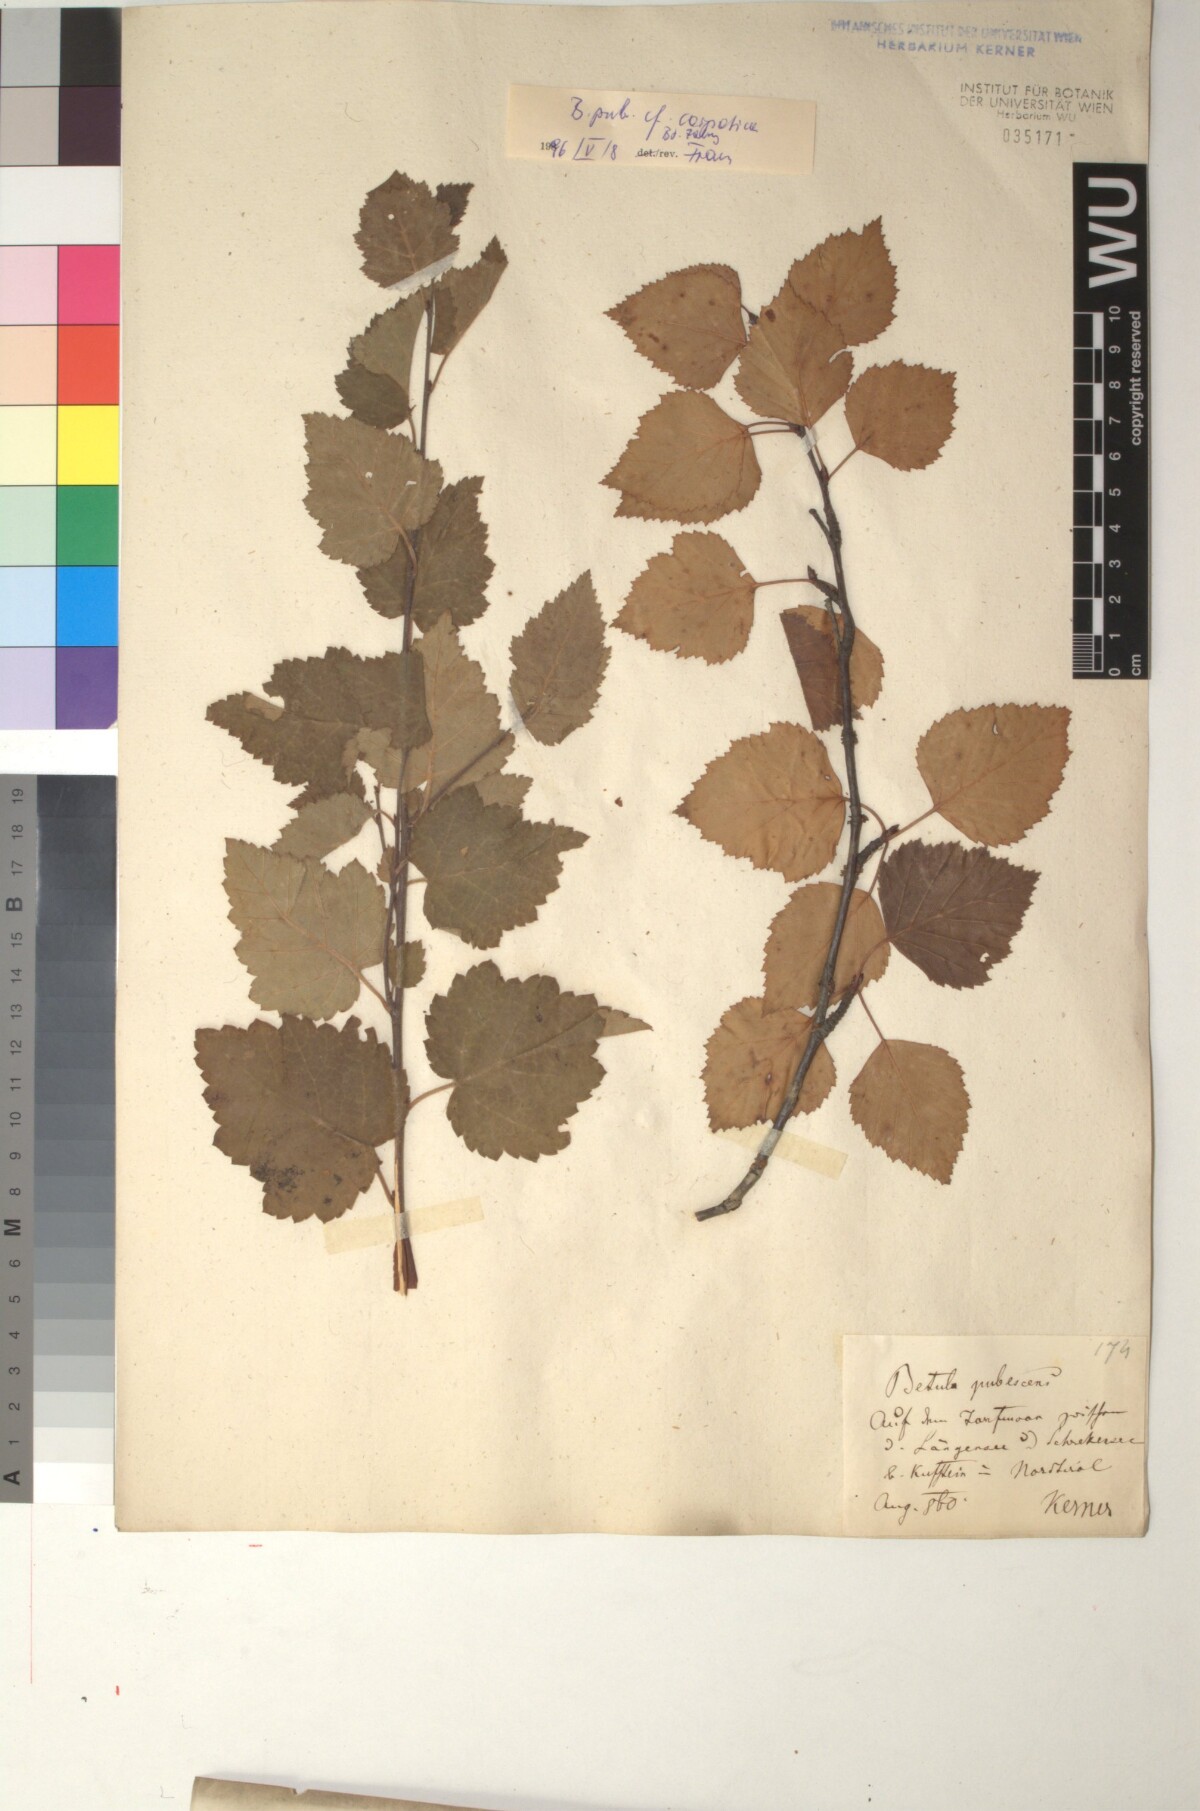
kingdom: Plantae
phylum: Tracheophyta
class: Magnoliopsida
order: Fagales
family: Betulaceae
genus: Betula
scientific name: Betula pubescens
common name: Downy birch
